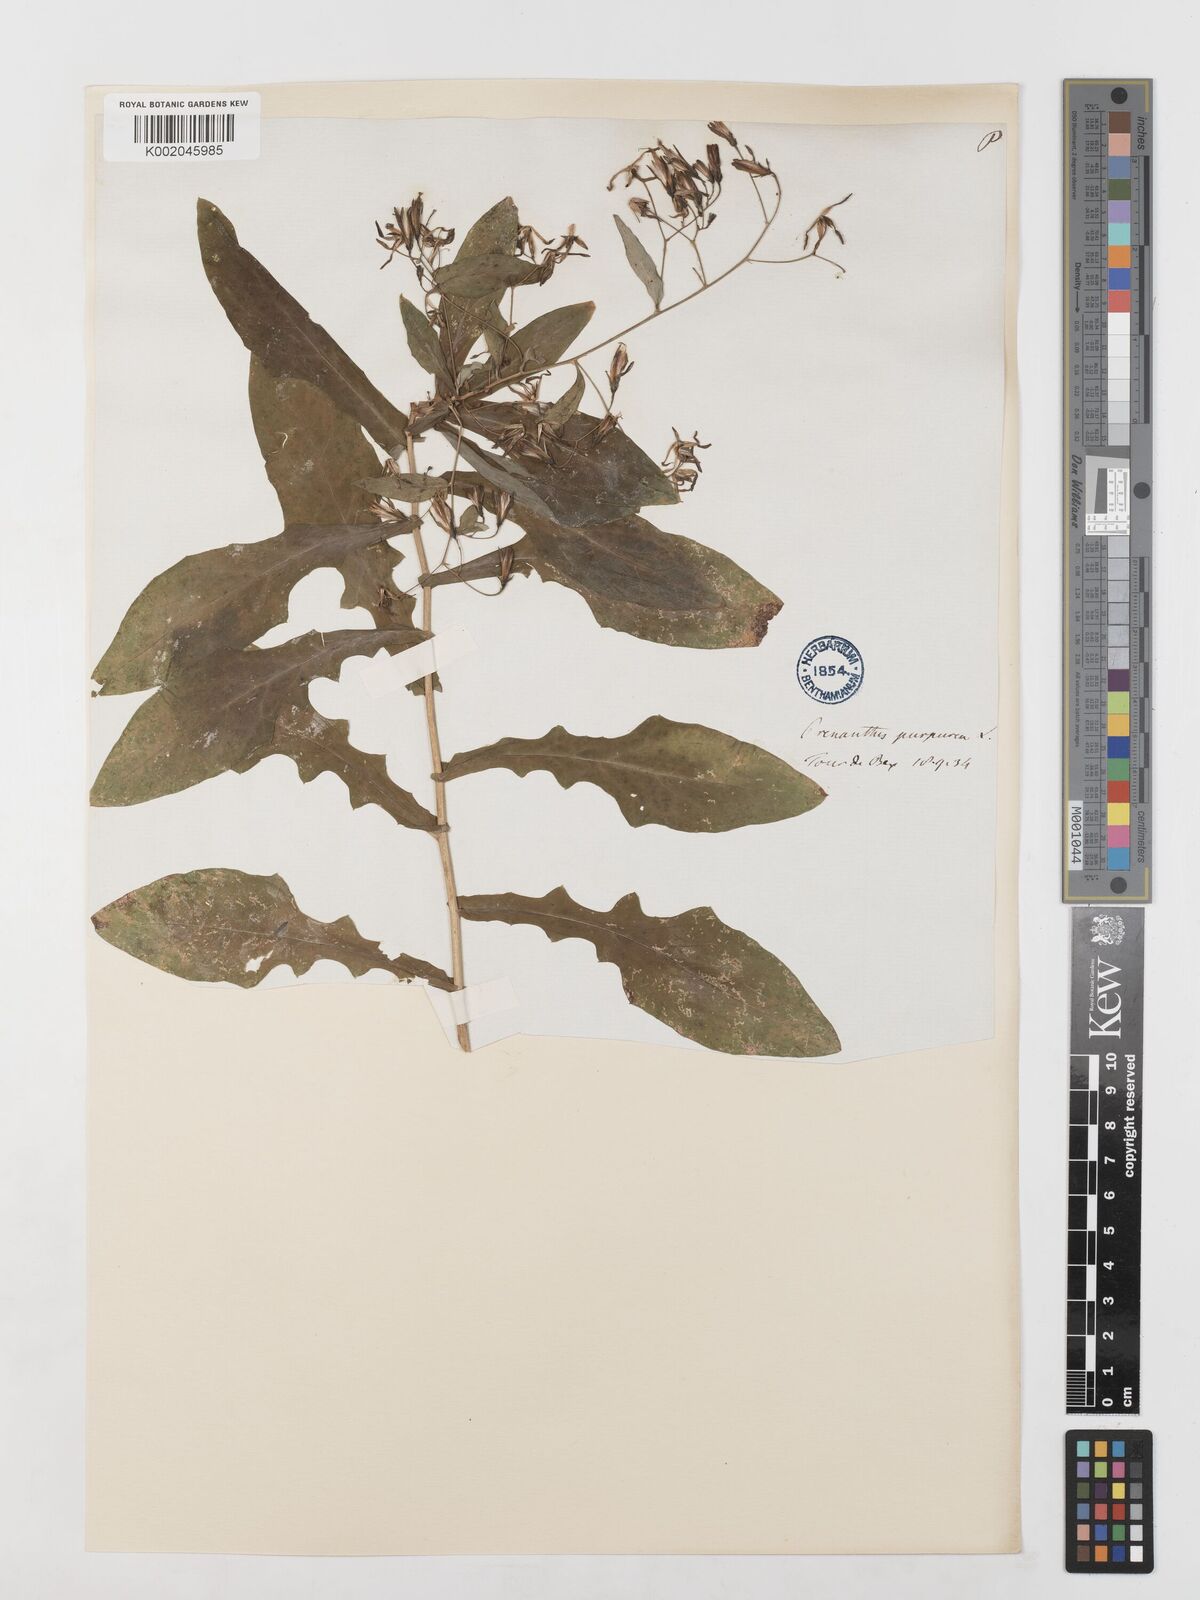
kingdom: Plantae
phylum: Tracheophyta
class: Magnoliopsida
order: Asterales
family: Asteraceae
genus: Prenanthes
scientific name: Prenanthes purpurea
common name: Purple lettuce
